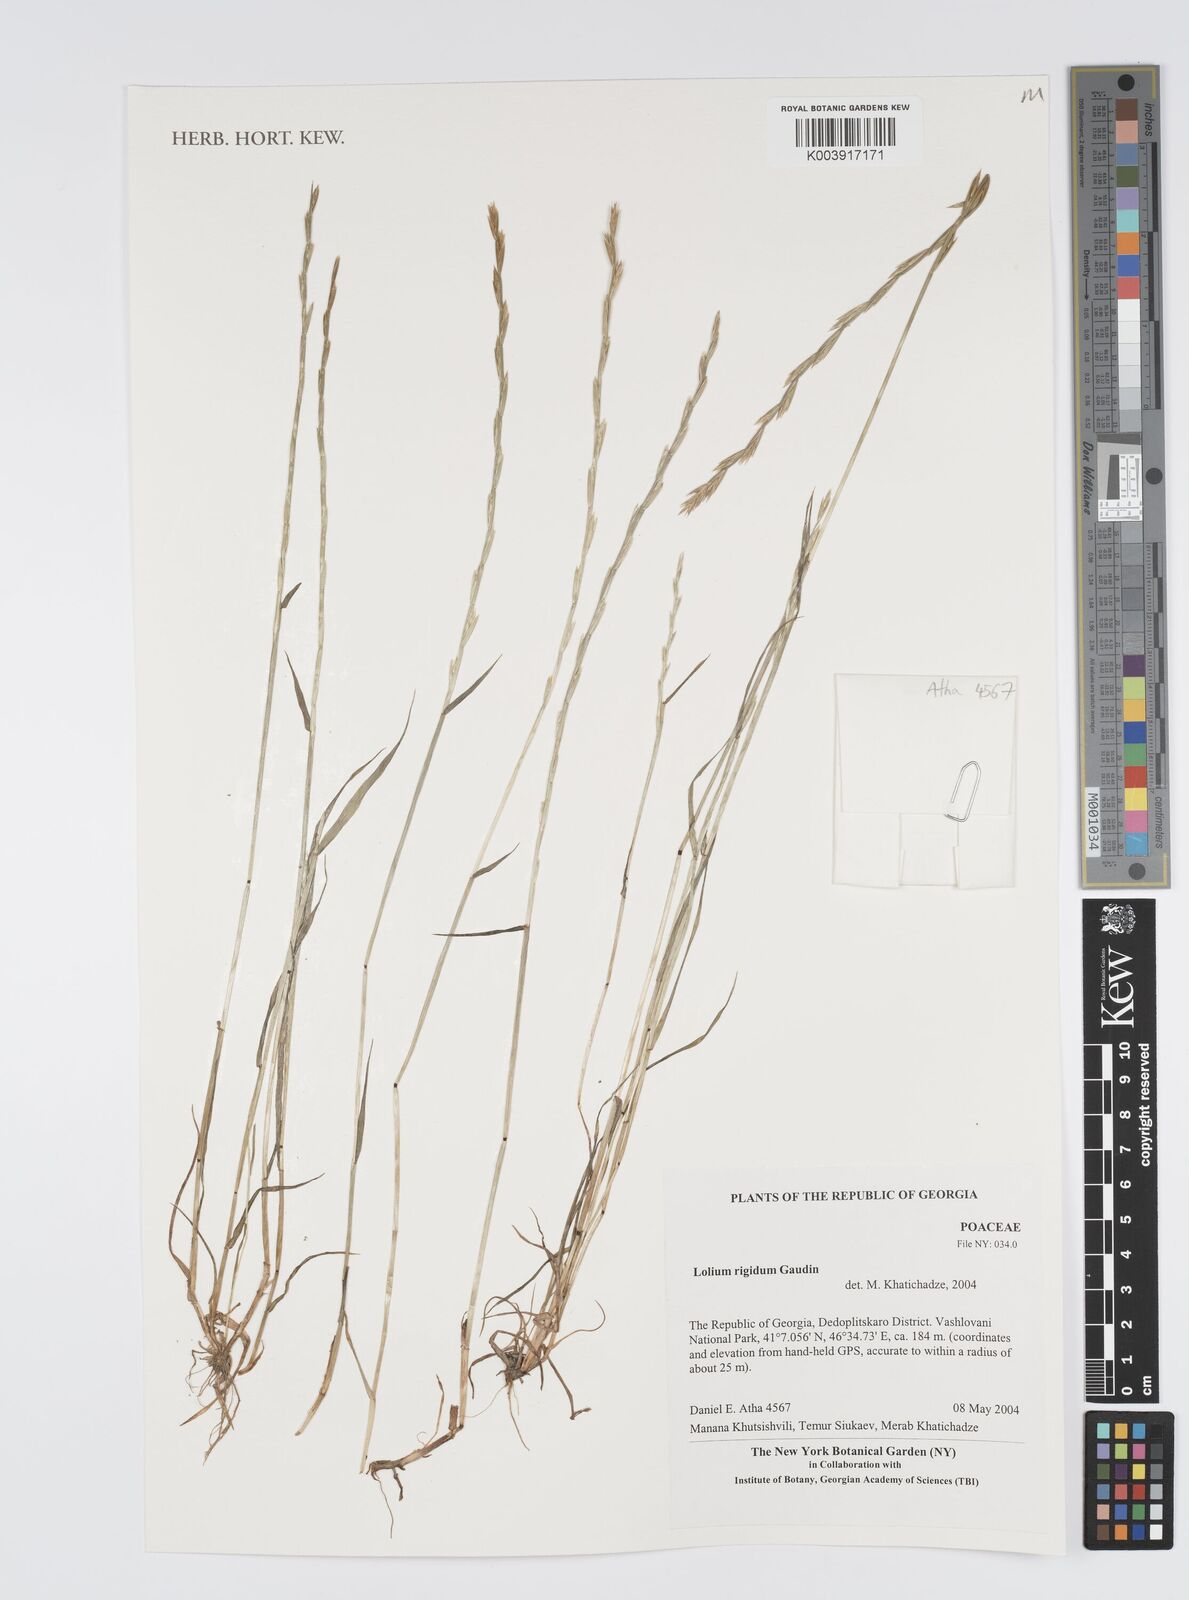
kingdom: Plantae
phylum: Tracheophyta
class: Liliopsida
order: Poales
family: Poaceae
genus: Lolium
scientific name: Lolium rigidum
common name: Wimmera ryegrass
